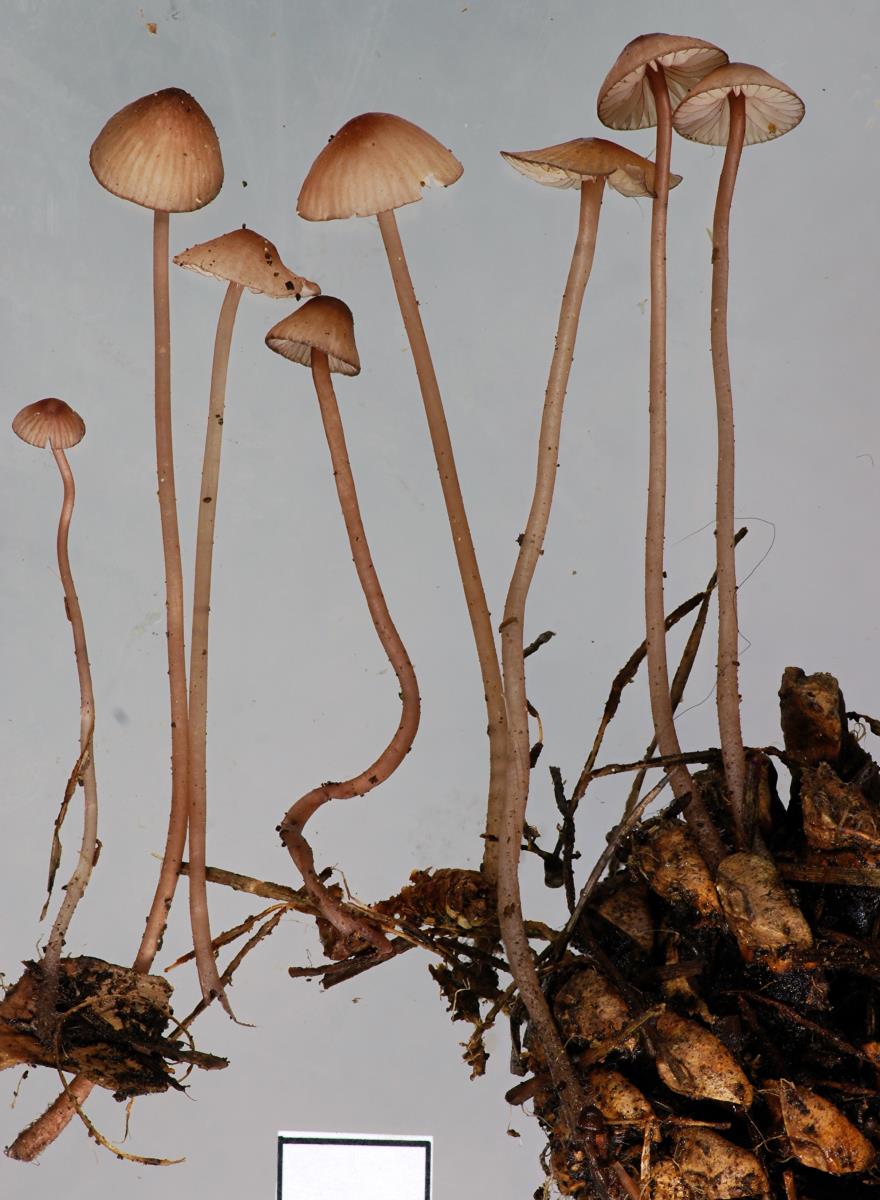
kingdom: Fungi
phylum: Basidiomycota
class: Agaricomycetes
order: Agaricales
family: Mycenaceae
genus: Mycena
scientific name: Mycena sanguinolenta
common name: Bleeding bonnet
